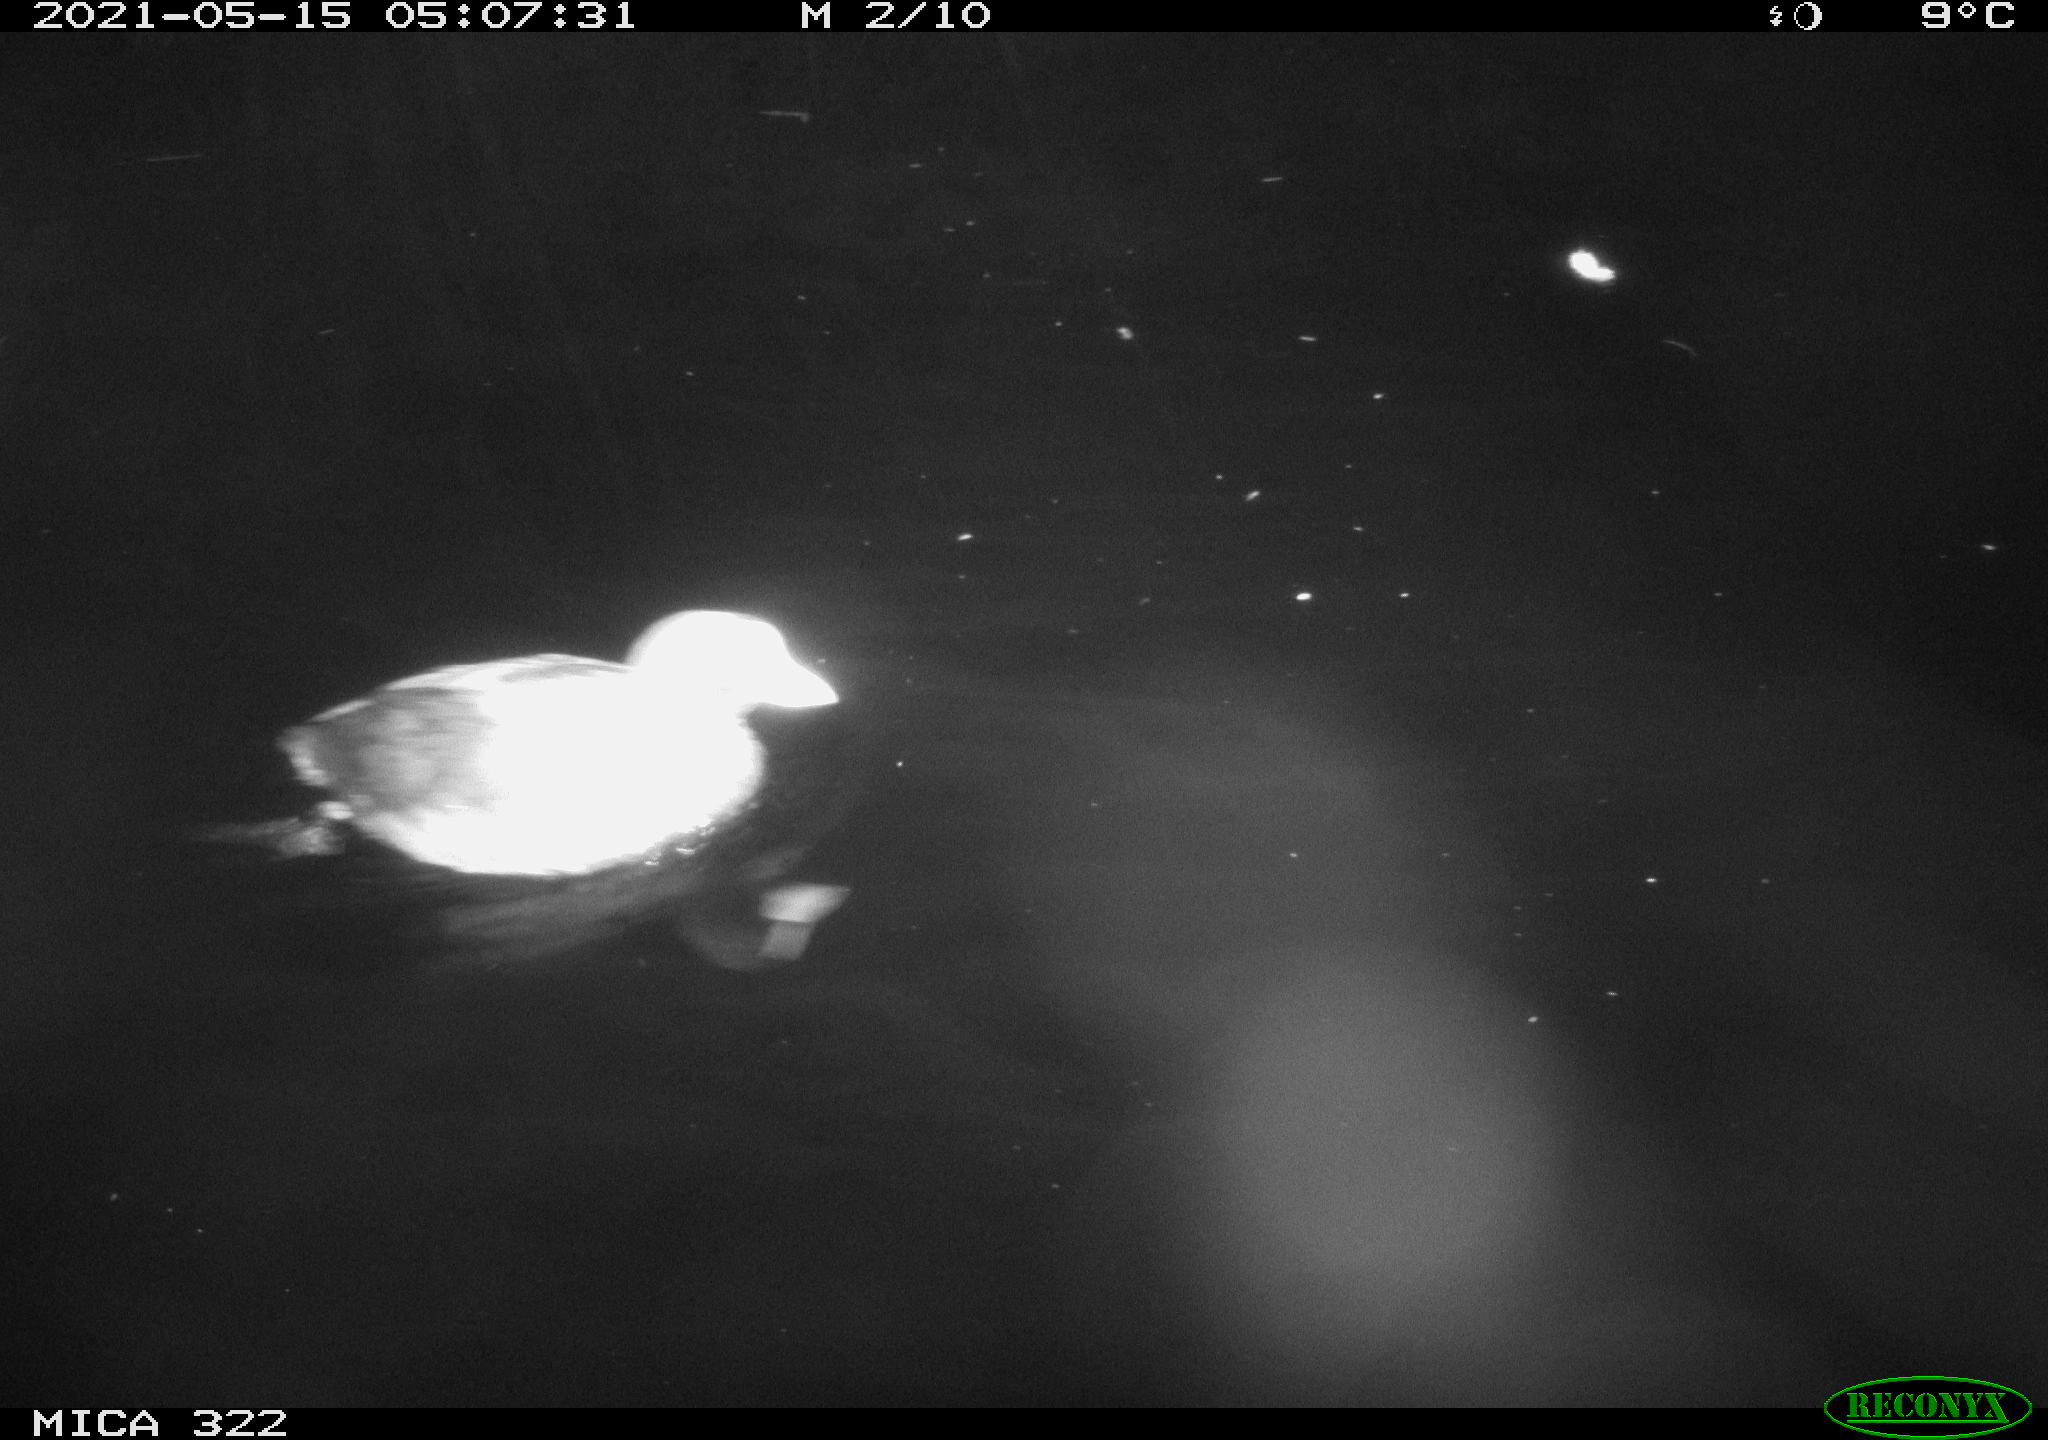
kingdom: Animalia
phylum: Chordata
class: Aves
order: Gruiformes
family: Rallidae
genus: Fulica
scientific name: Fulica atra
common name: Eurasian coot
